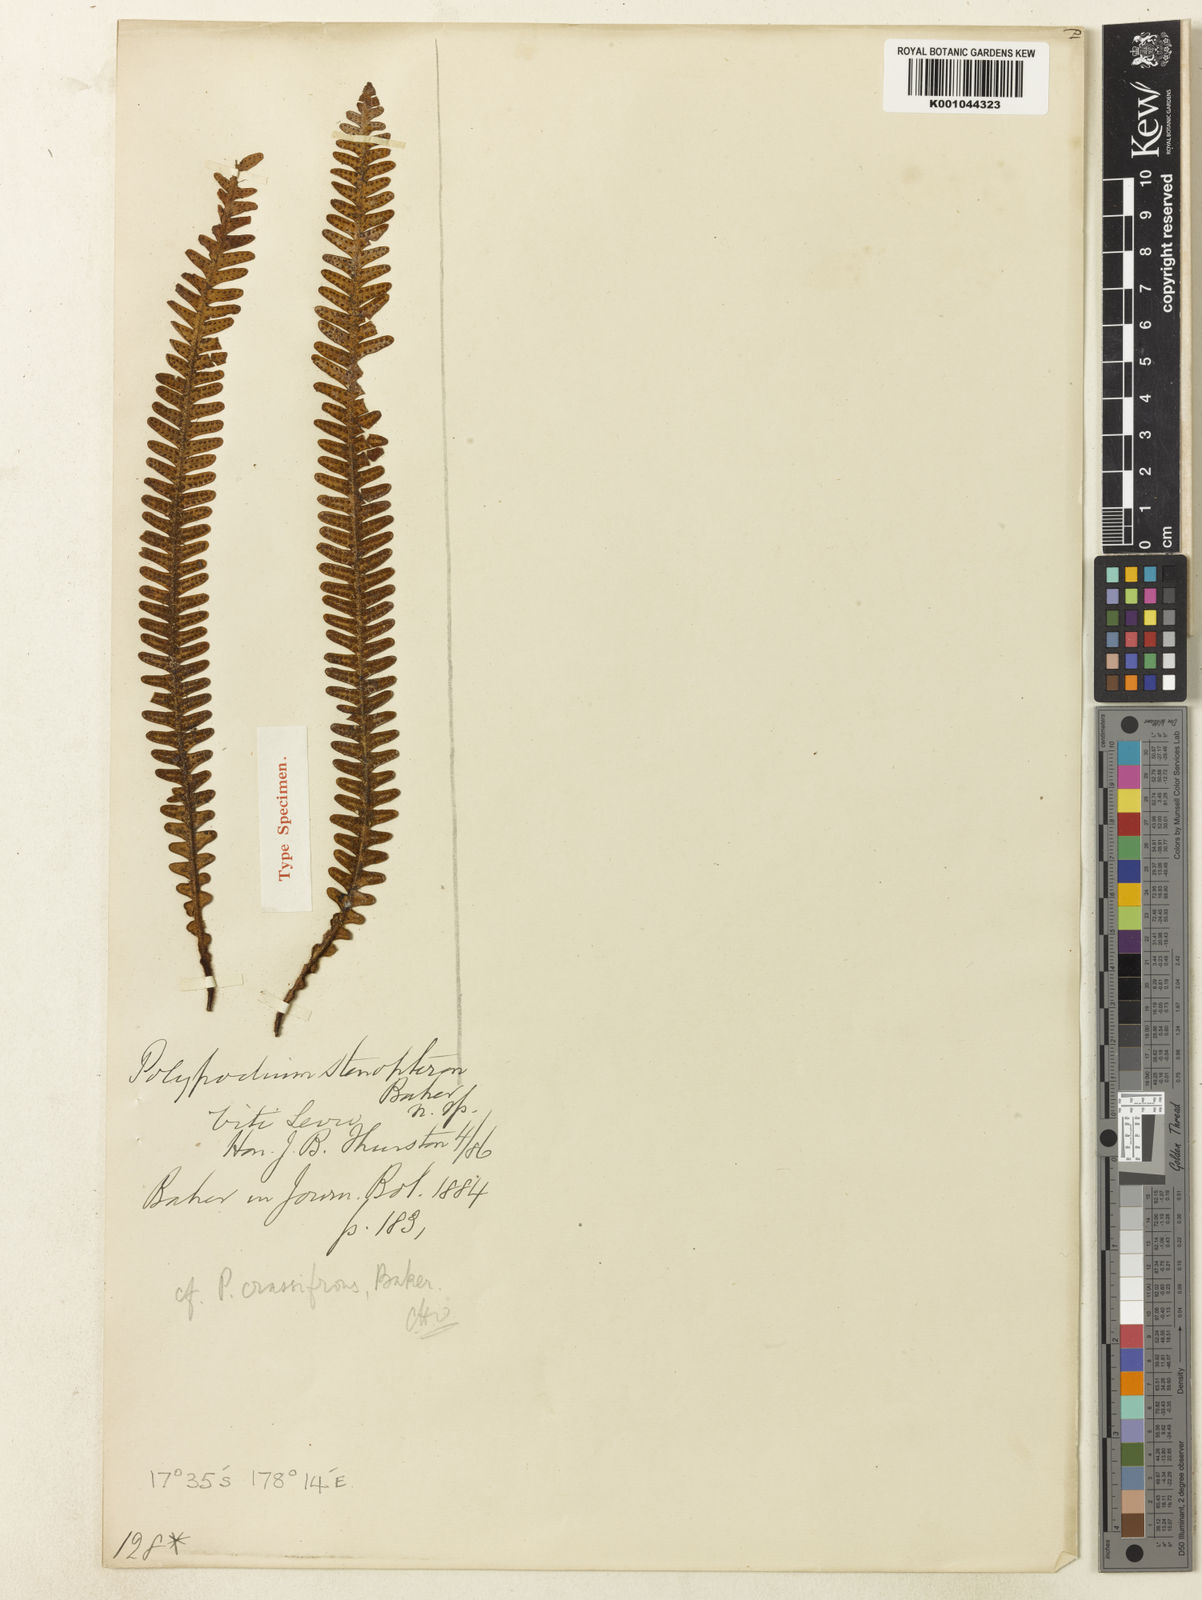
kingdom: Plantae
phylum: Tracheophyta
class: Polypodiopsida
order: Polypodiales
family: Polypodiaceae
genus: Dasygrammitis
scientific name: Dasygrammitis crassifrons
